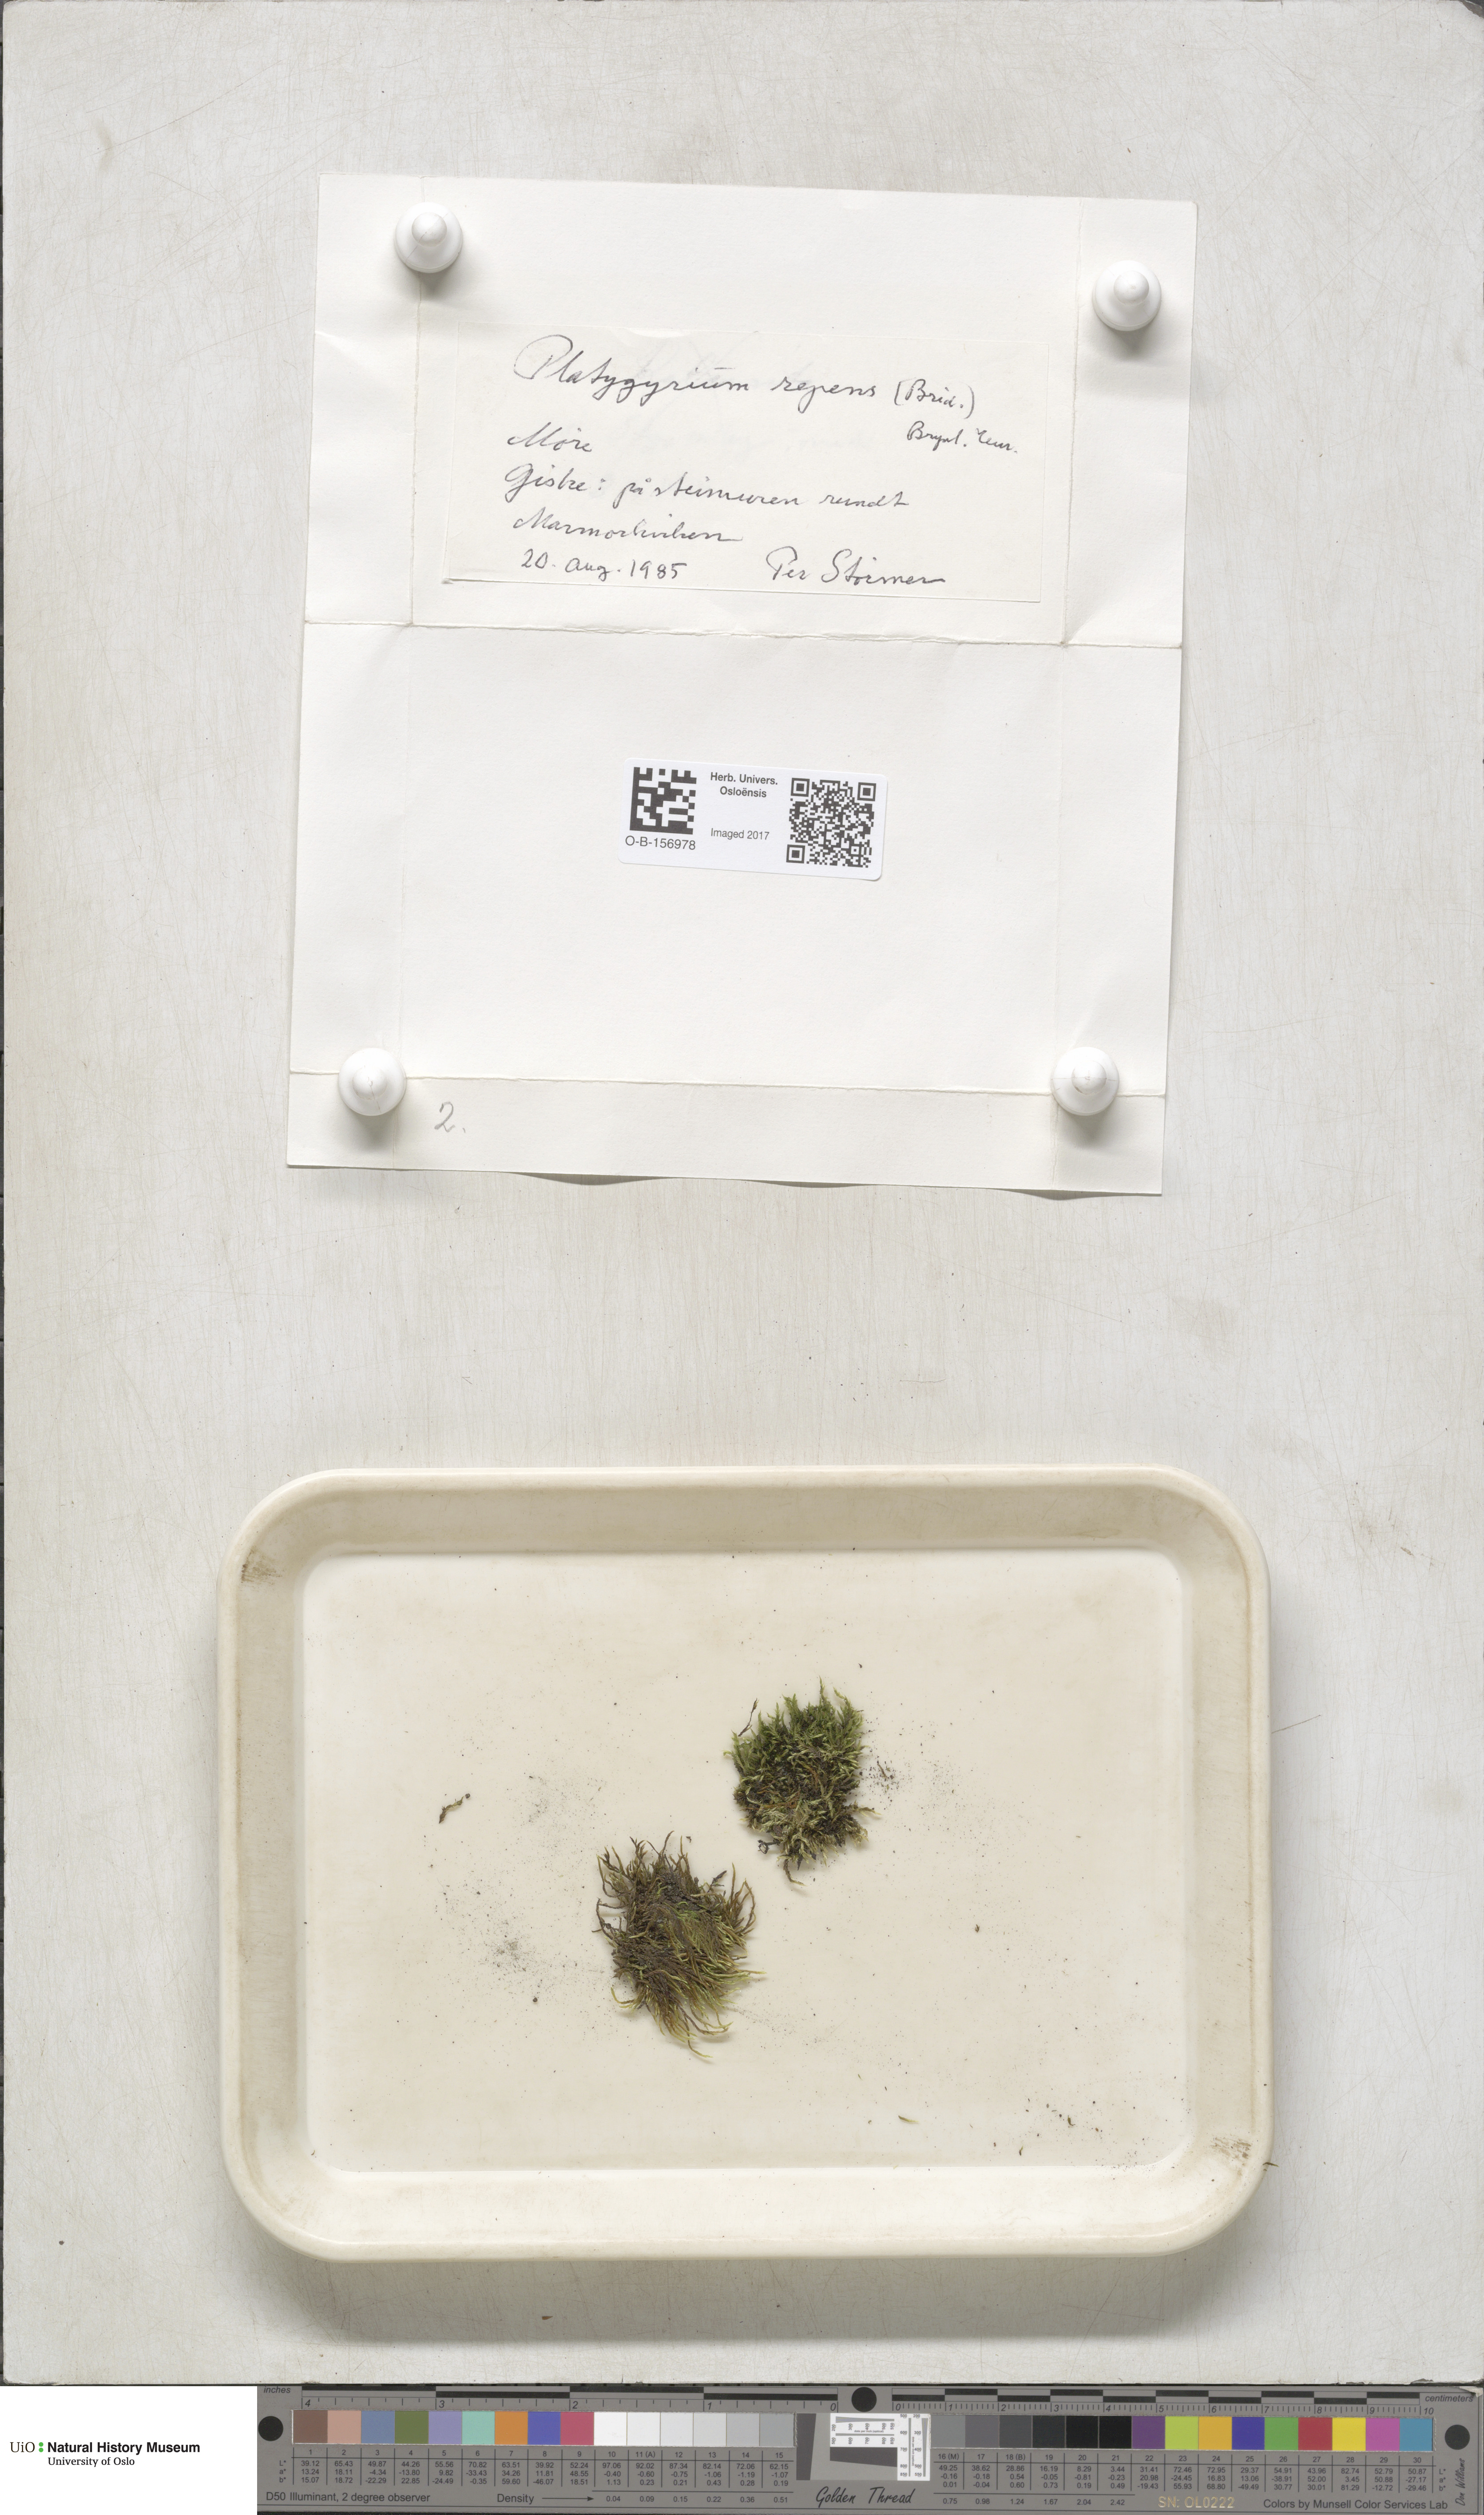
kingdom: Plantae
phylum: Bryophyta
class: Bryopsida
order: Hypnales
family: Pylaisiadelphaceae
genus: Platygyrium
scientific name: Platygyrium repens
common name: Flat-brocade moss
